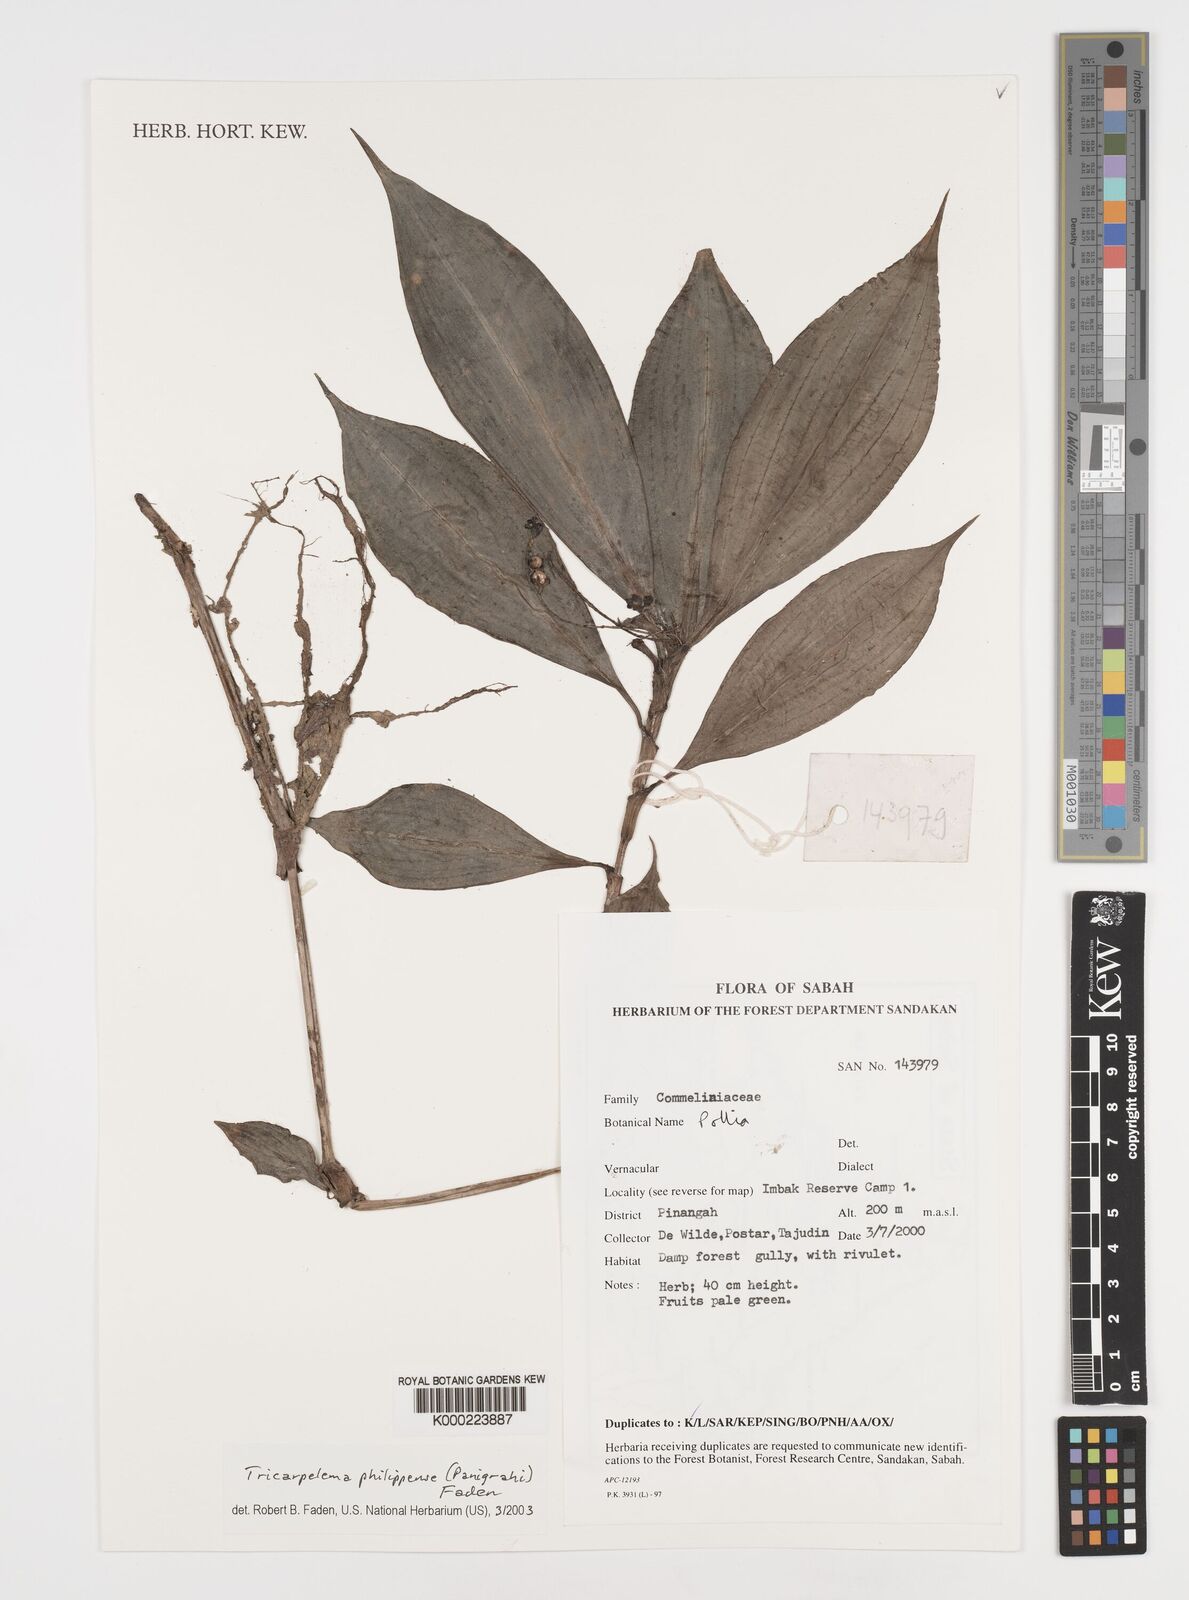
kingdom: Plantae
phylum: Tracheophyta
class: Liliopsida
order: Commelinales
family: Commelinaceae
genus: Tricarpelema
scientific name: Tricarpelema philippense
